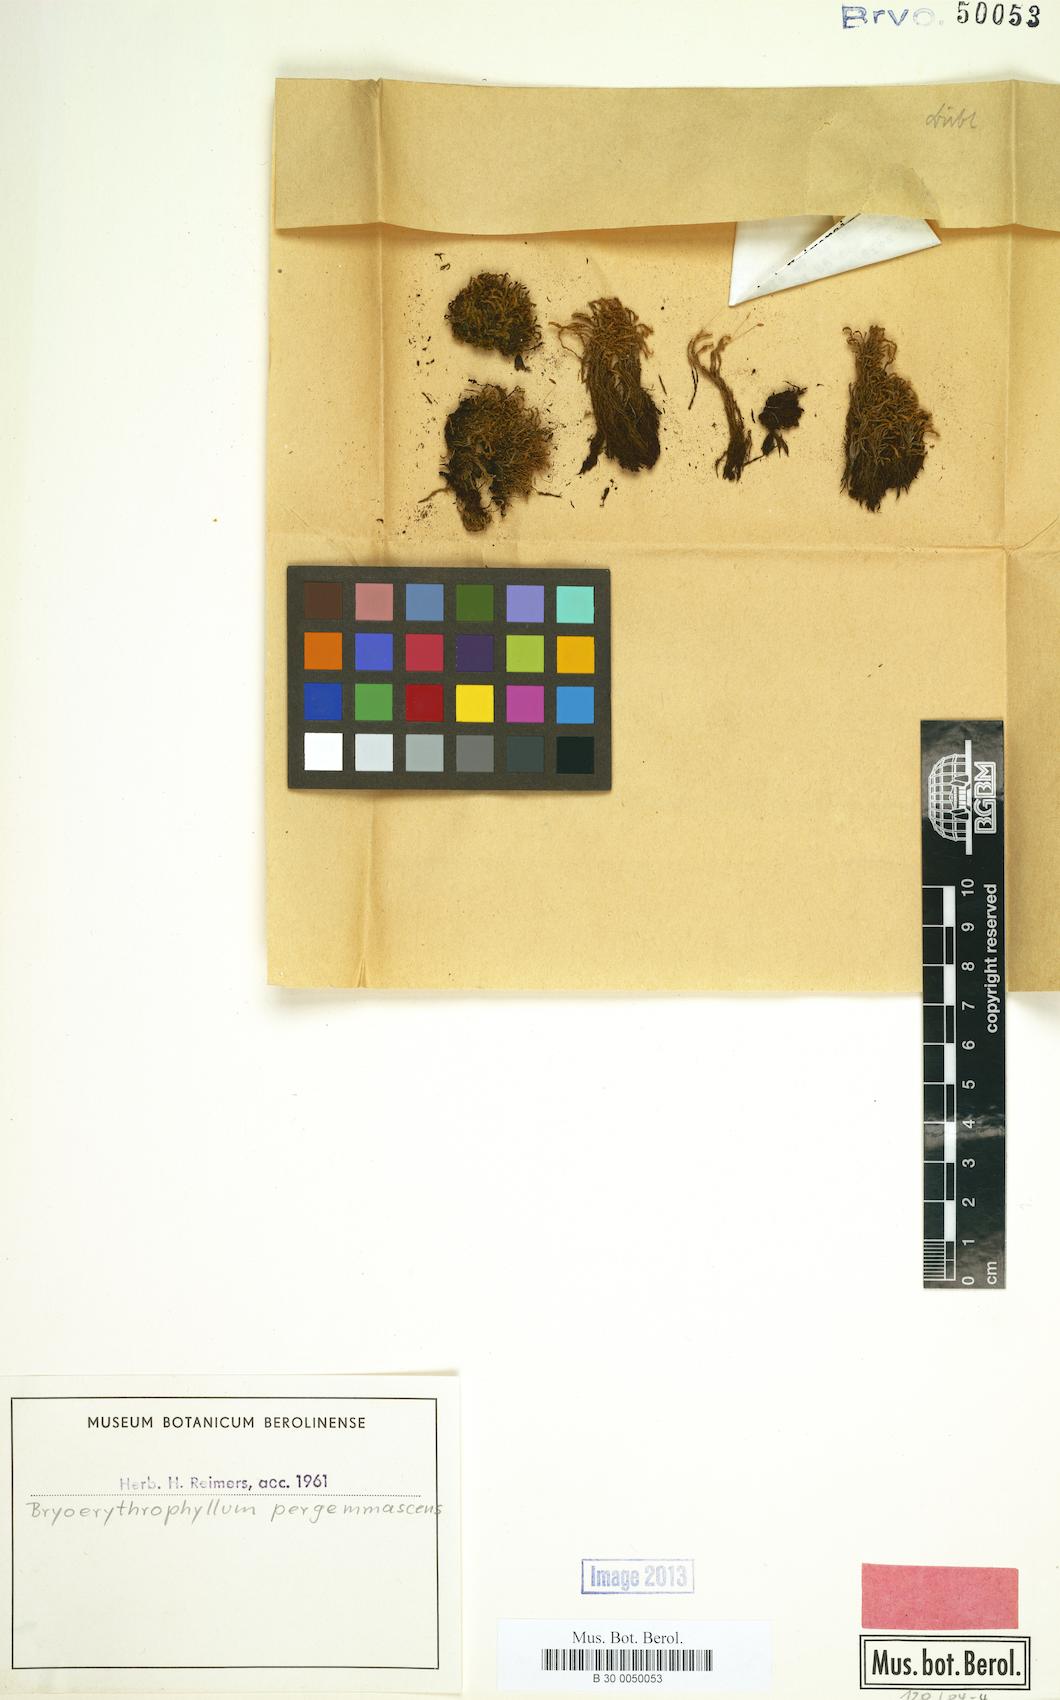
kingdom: Plantae
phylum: Bryophyta
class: Bryopsida
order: Pottiales
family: Pottiaceae
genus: Leptodontium
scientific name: Leptodontium flexifolium
